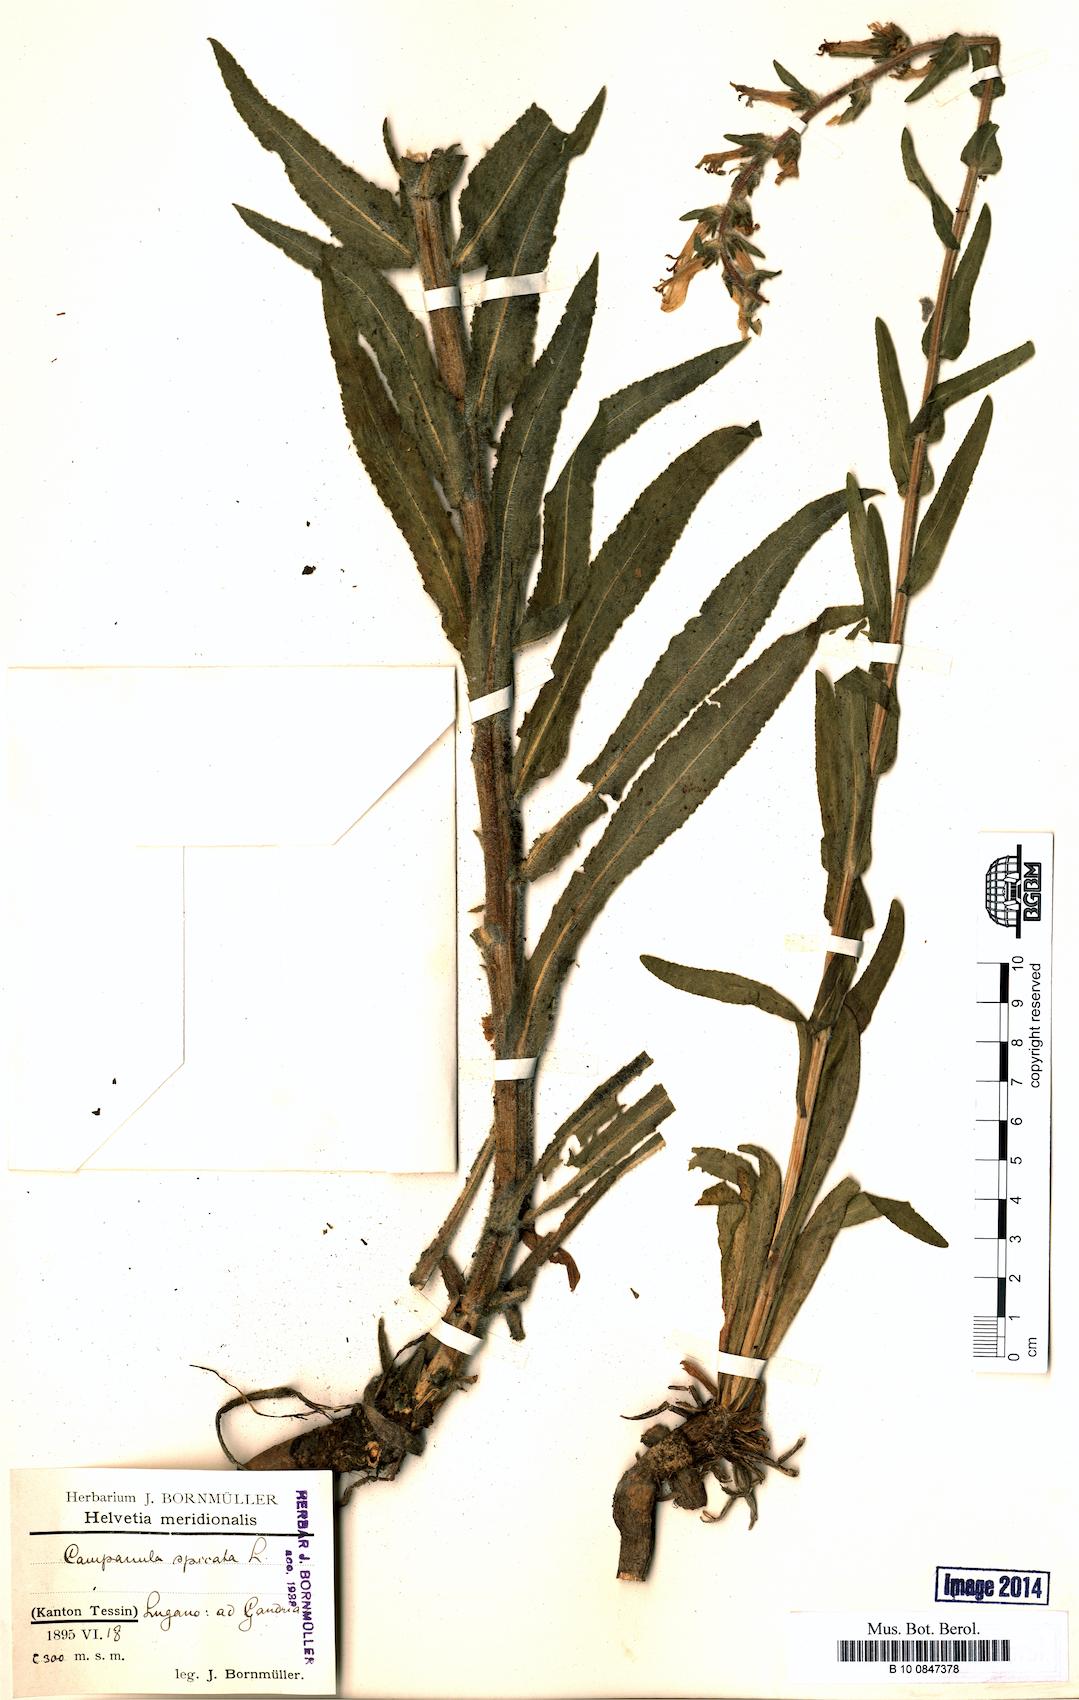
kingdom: Plantae
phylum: Tracheophyta
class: Magnoliopsida
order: Asterales
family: Campanulaceae
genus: Campanula
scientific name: Campanula spicata
